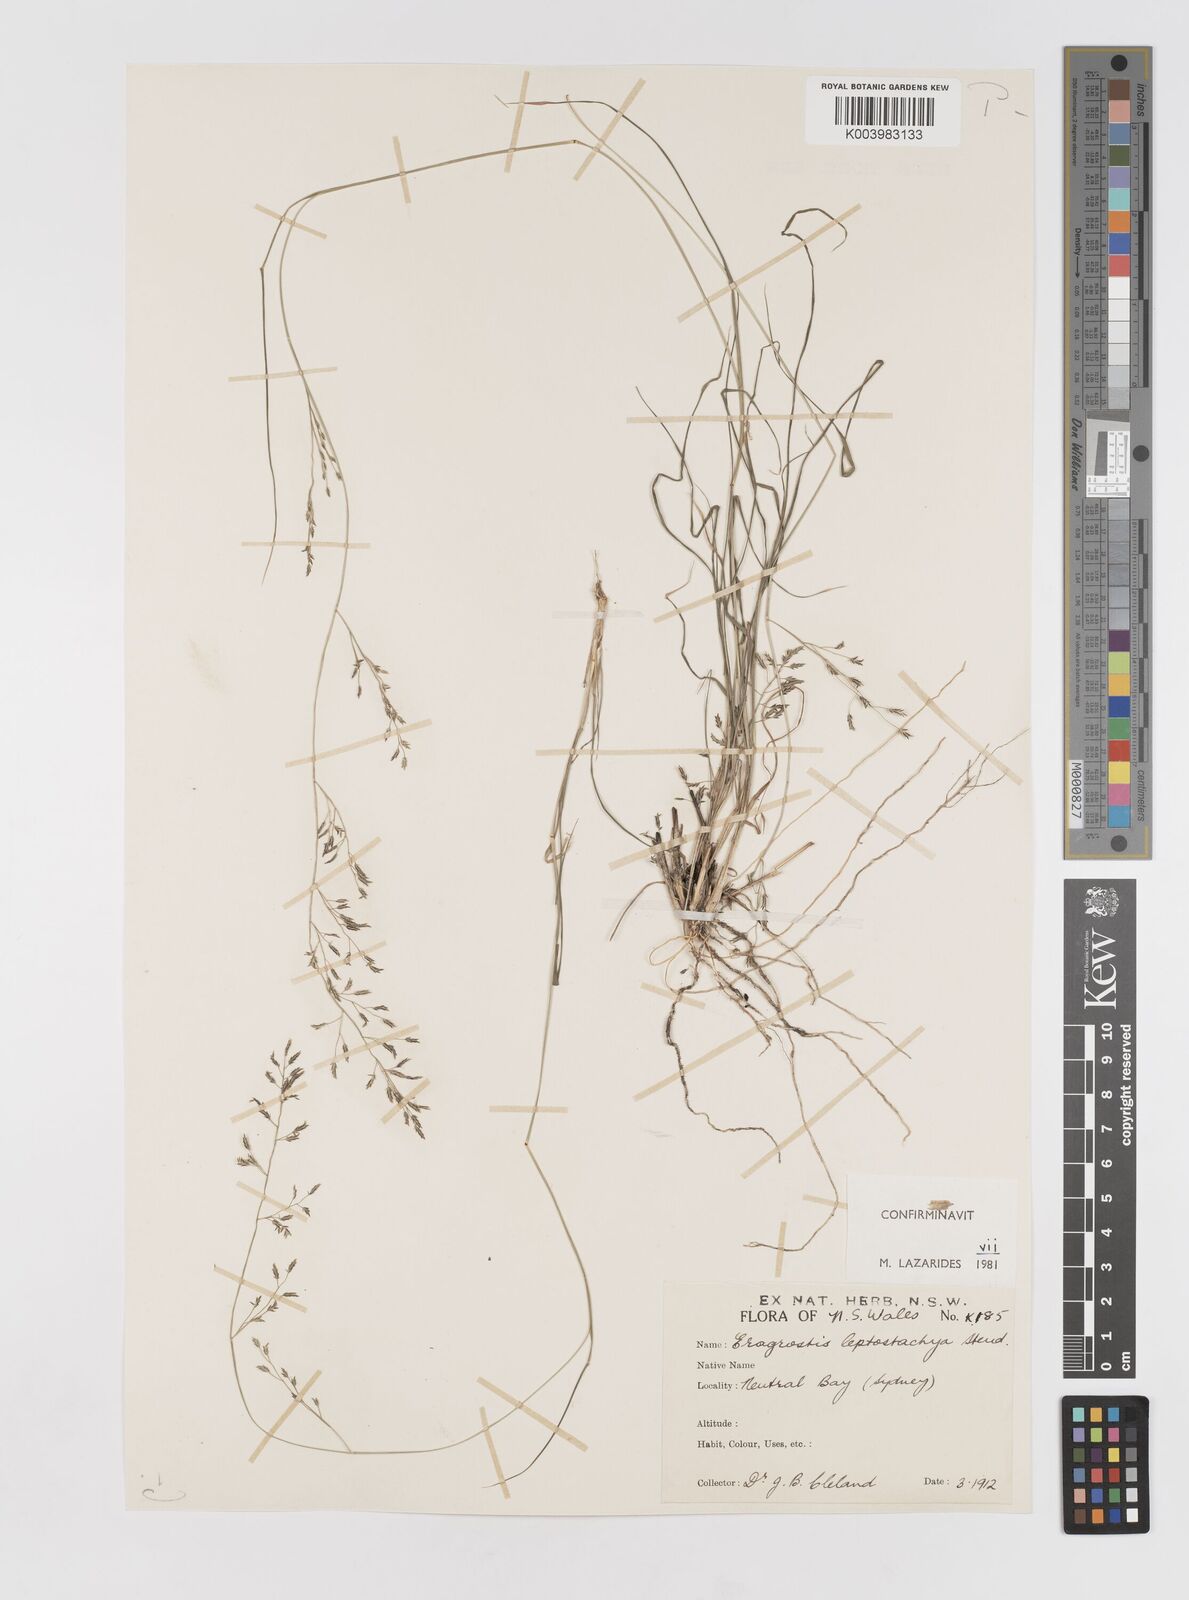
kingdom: Plantae
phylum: Tracheophyta
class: Liliopsida
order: Poales
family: Poaceae
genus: Eragrostis
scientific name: Eragrostis leptostachya
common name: Australian lovegrass
